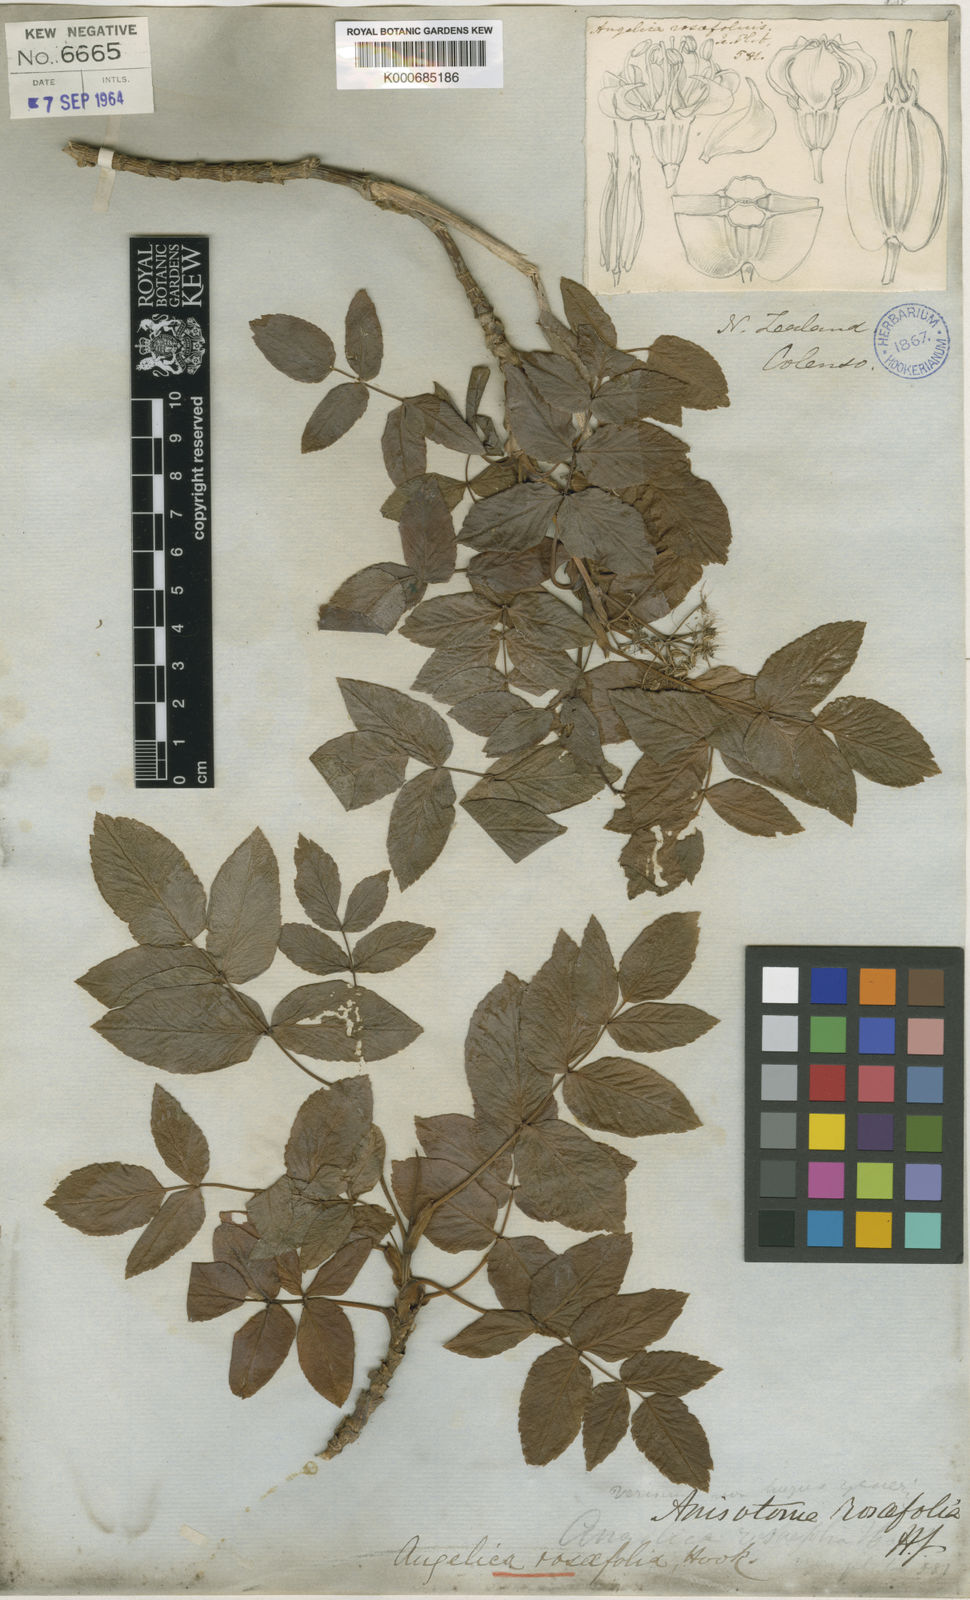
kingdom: Plantae
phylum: Tracheophyta
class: Magnoliopsida
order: Apiales
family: Apiaceae
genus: Scandia
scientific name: Scandia rosifolia
